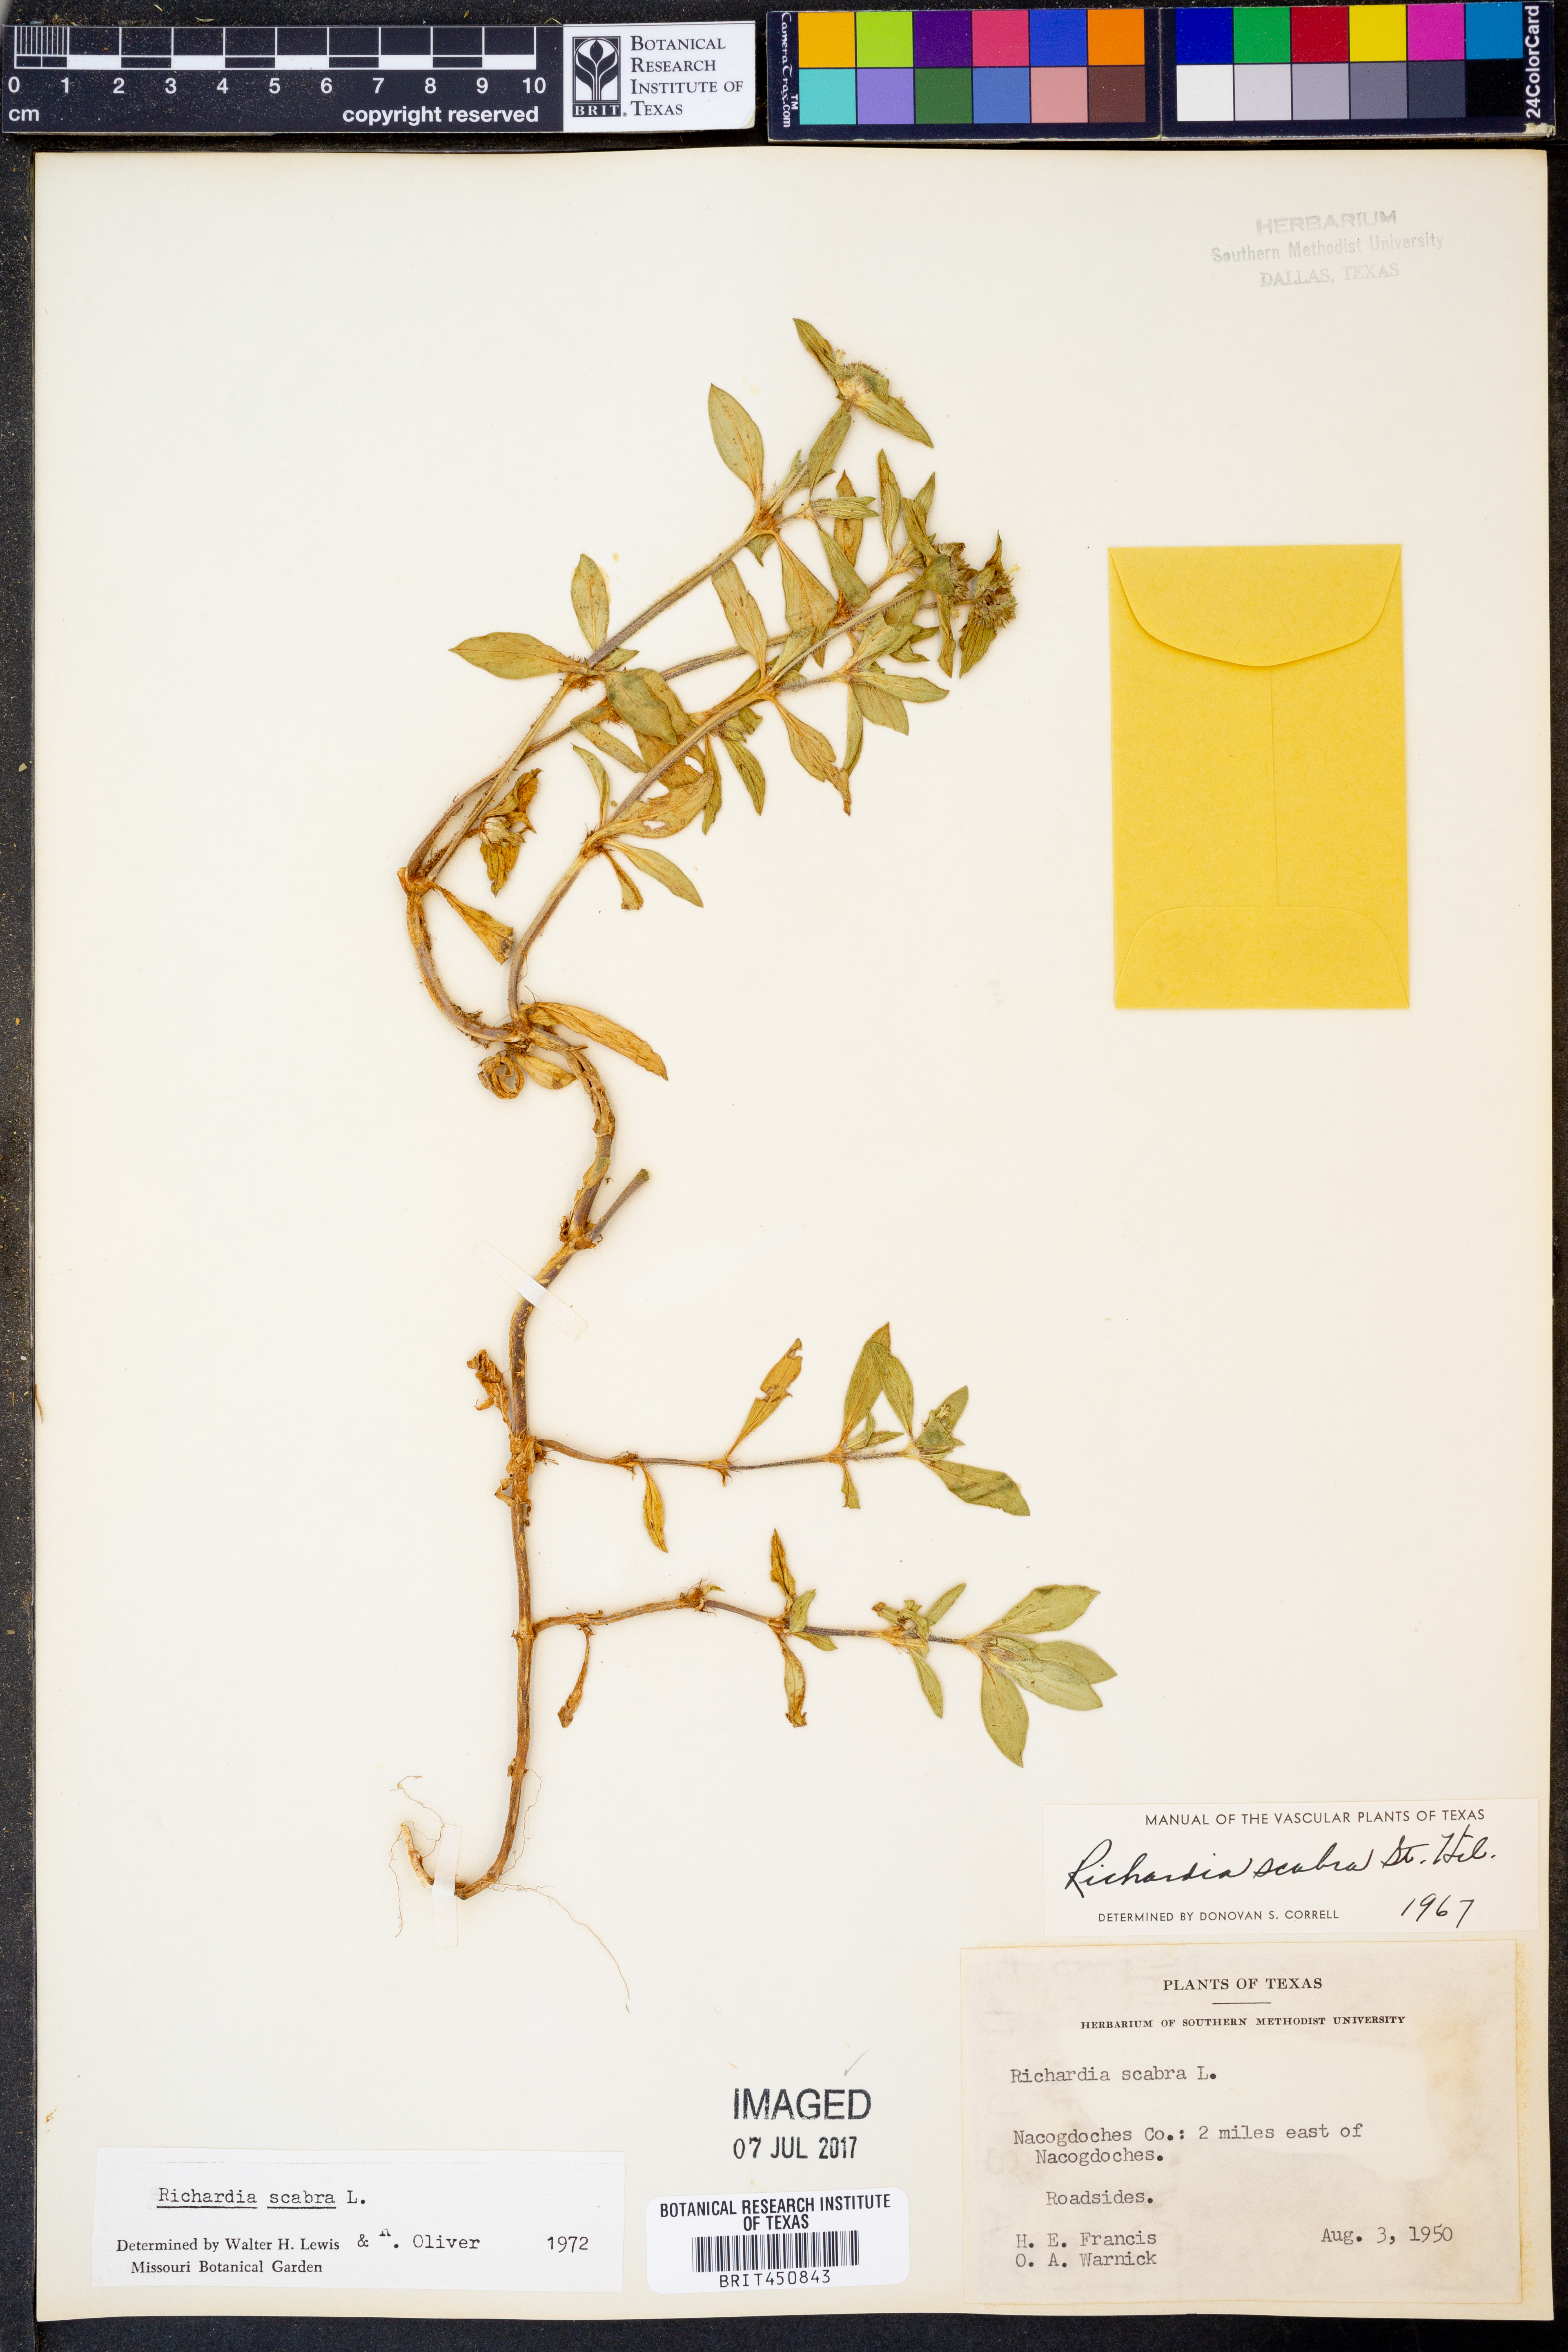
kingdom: Plantae
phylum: Tracheophyta
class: Magnoliopsida
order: Gentianales
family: Rubiaceae
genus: Richardia
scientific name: Richardia scabra
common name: Rough mexican clover
